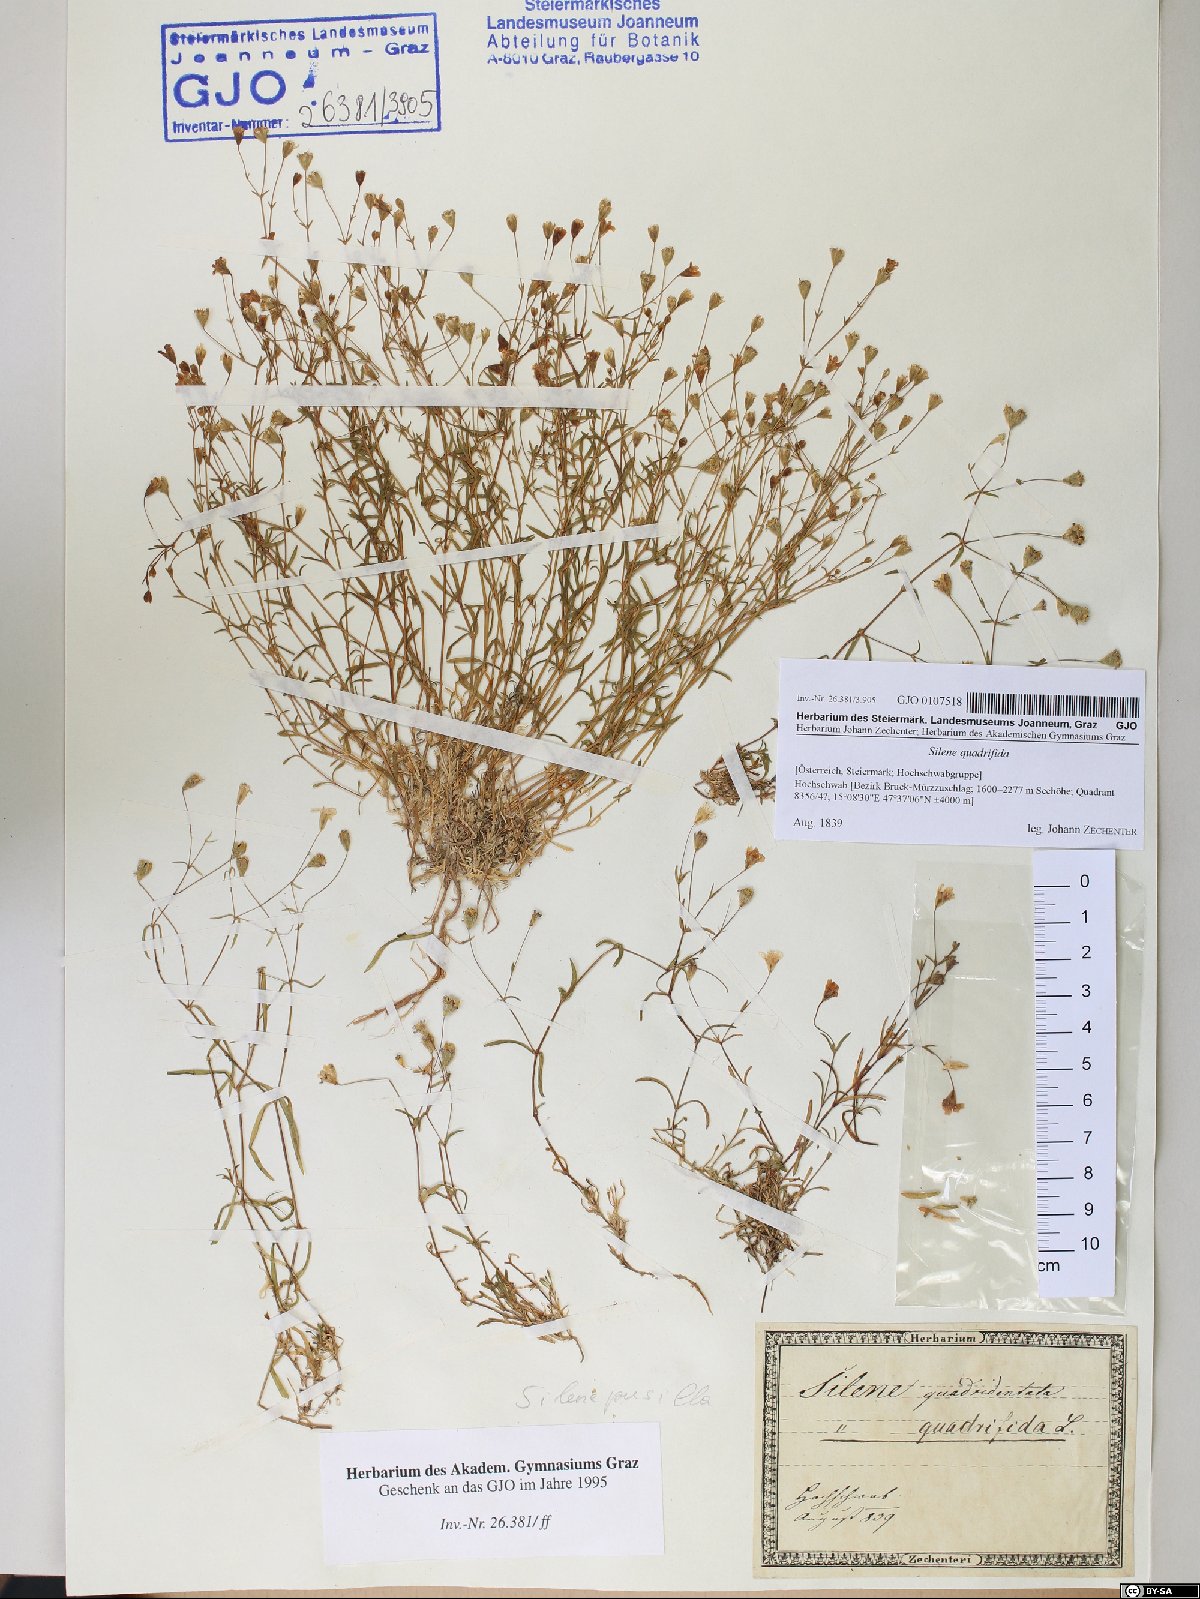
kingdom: Plantae
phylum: Tracheophyta
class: Magnoliopsida
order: Caryophyllales
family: Caryophyllaceae
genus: Heliosperma
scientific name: Heliosperma alpestre
